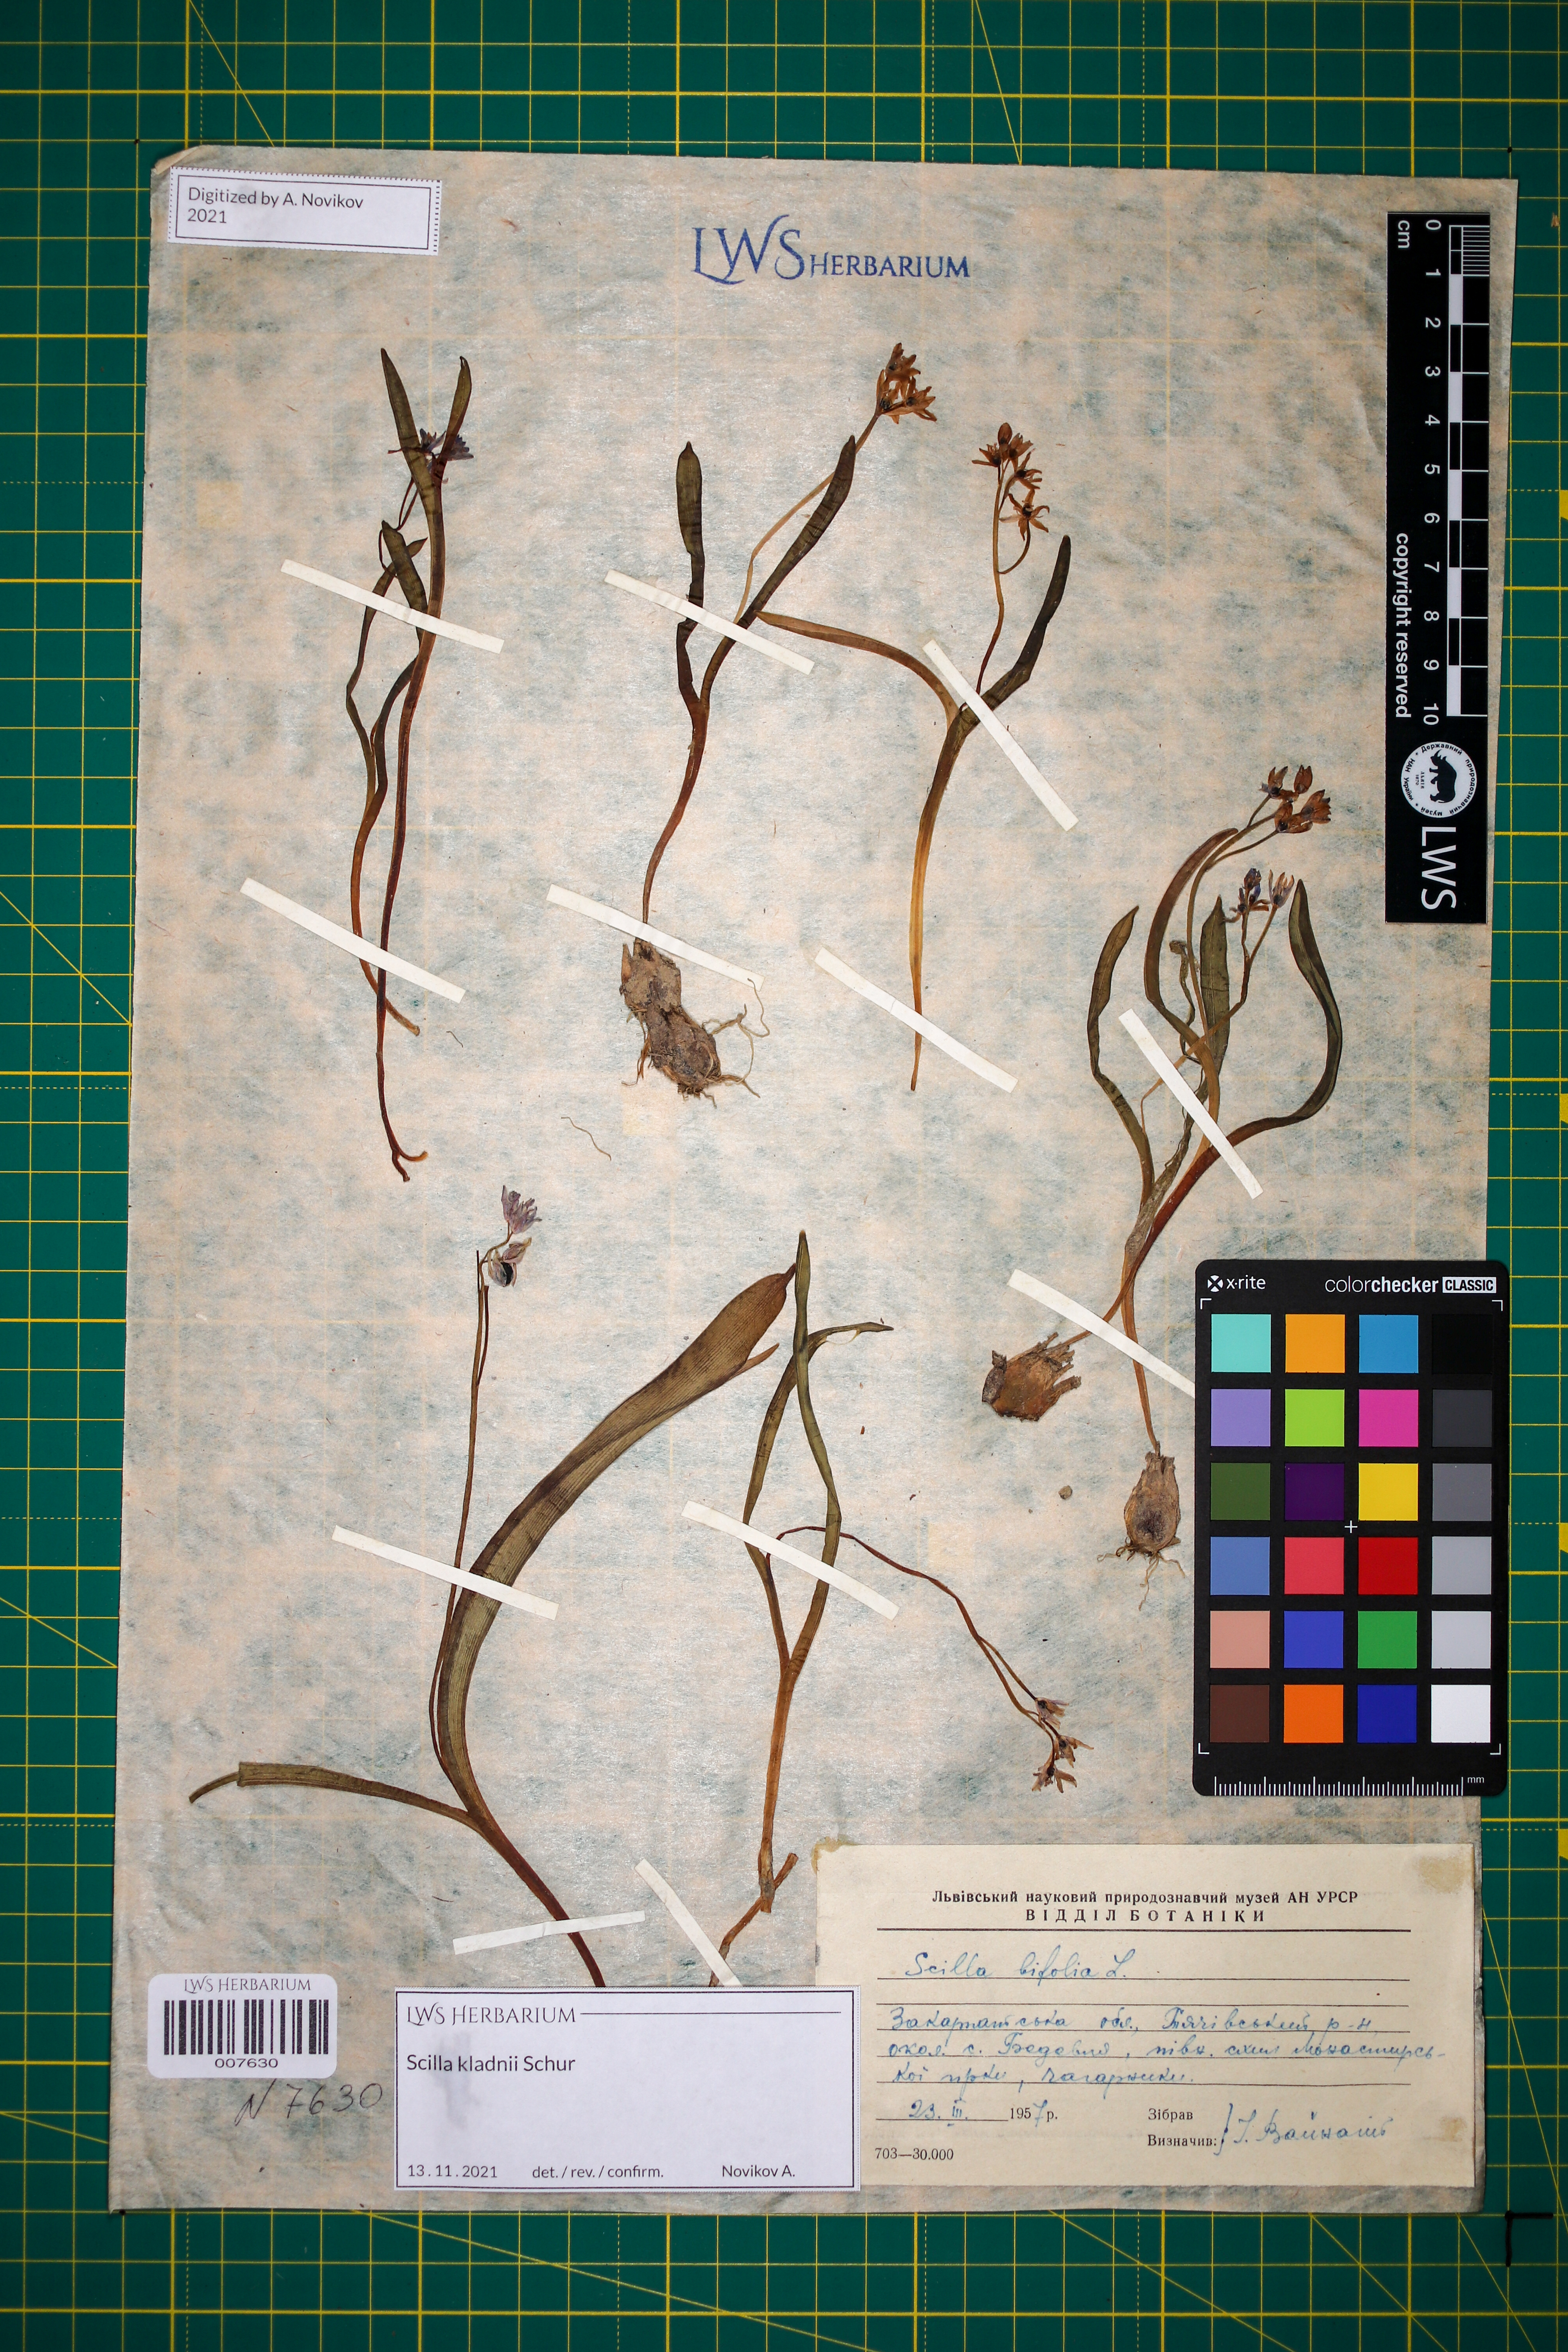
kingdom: Plantae
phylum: Tracheophyta
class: Liliopsida
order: Asparagales
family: Asparagaceae
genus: Scilla
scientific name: Scilla kladnii
